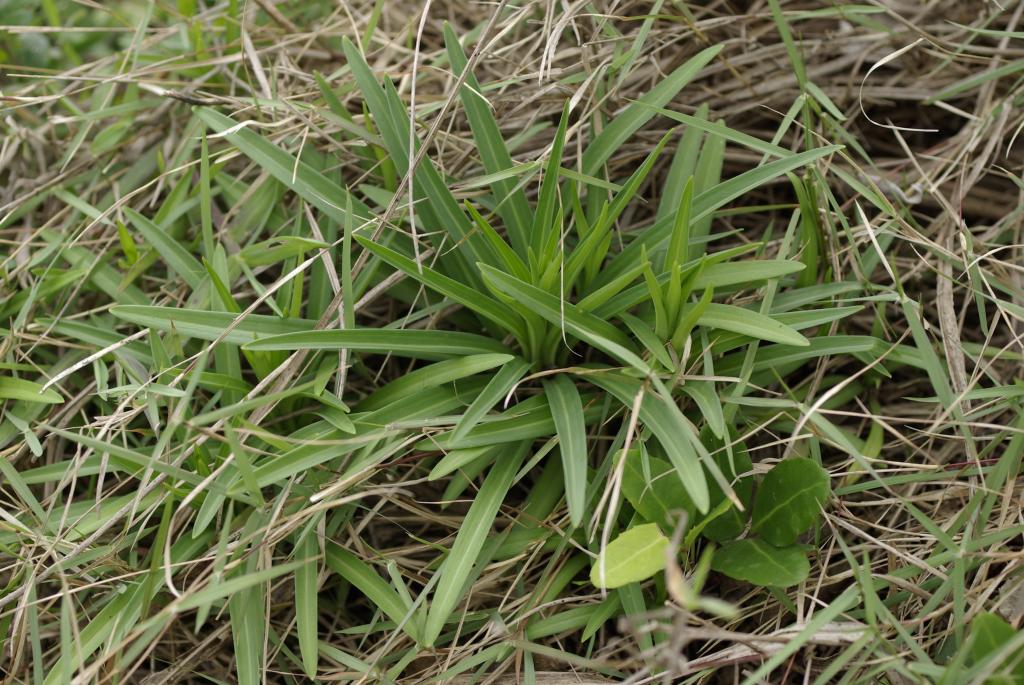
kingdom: Plantae
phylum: Tracheophyta
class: Liliopsida
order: Liliales
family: Liliaceae
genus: Lilium
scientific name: Lilium formosanum
